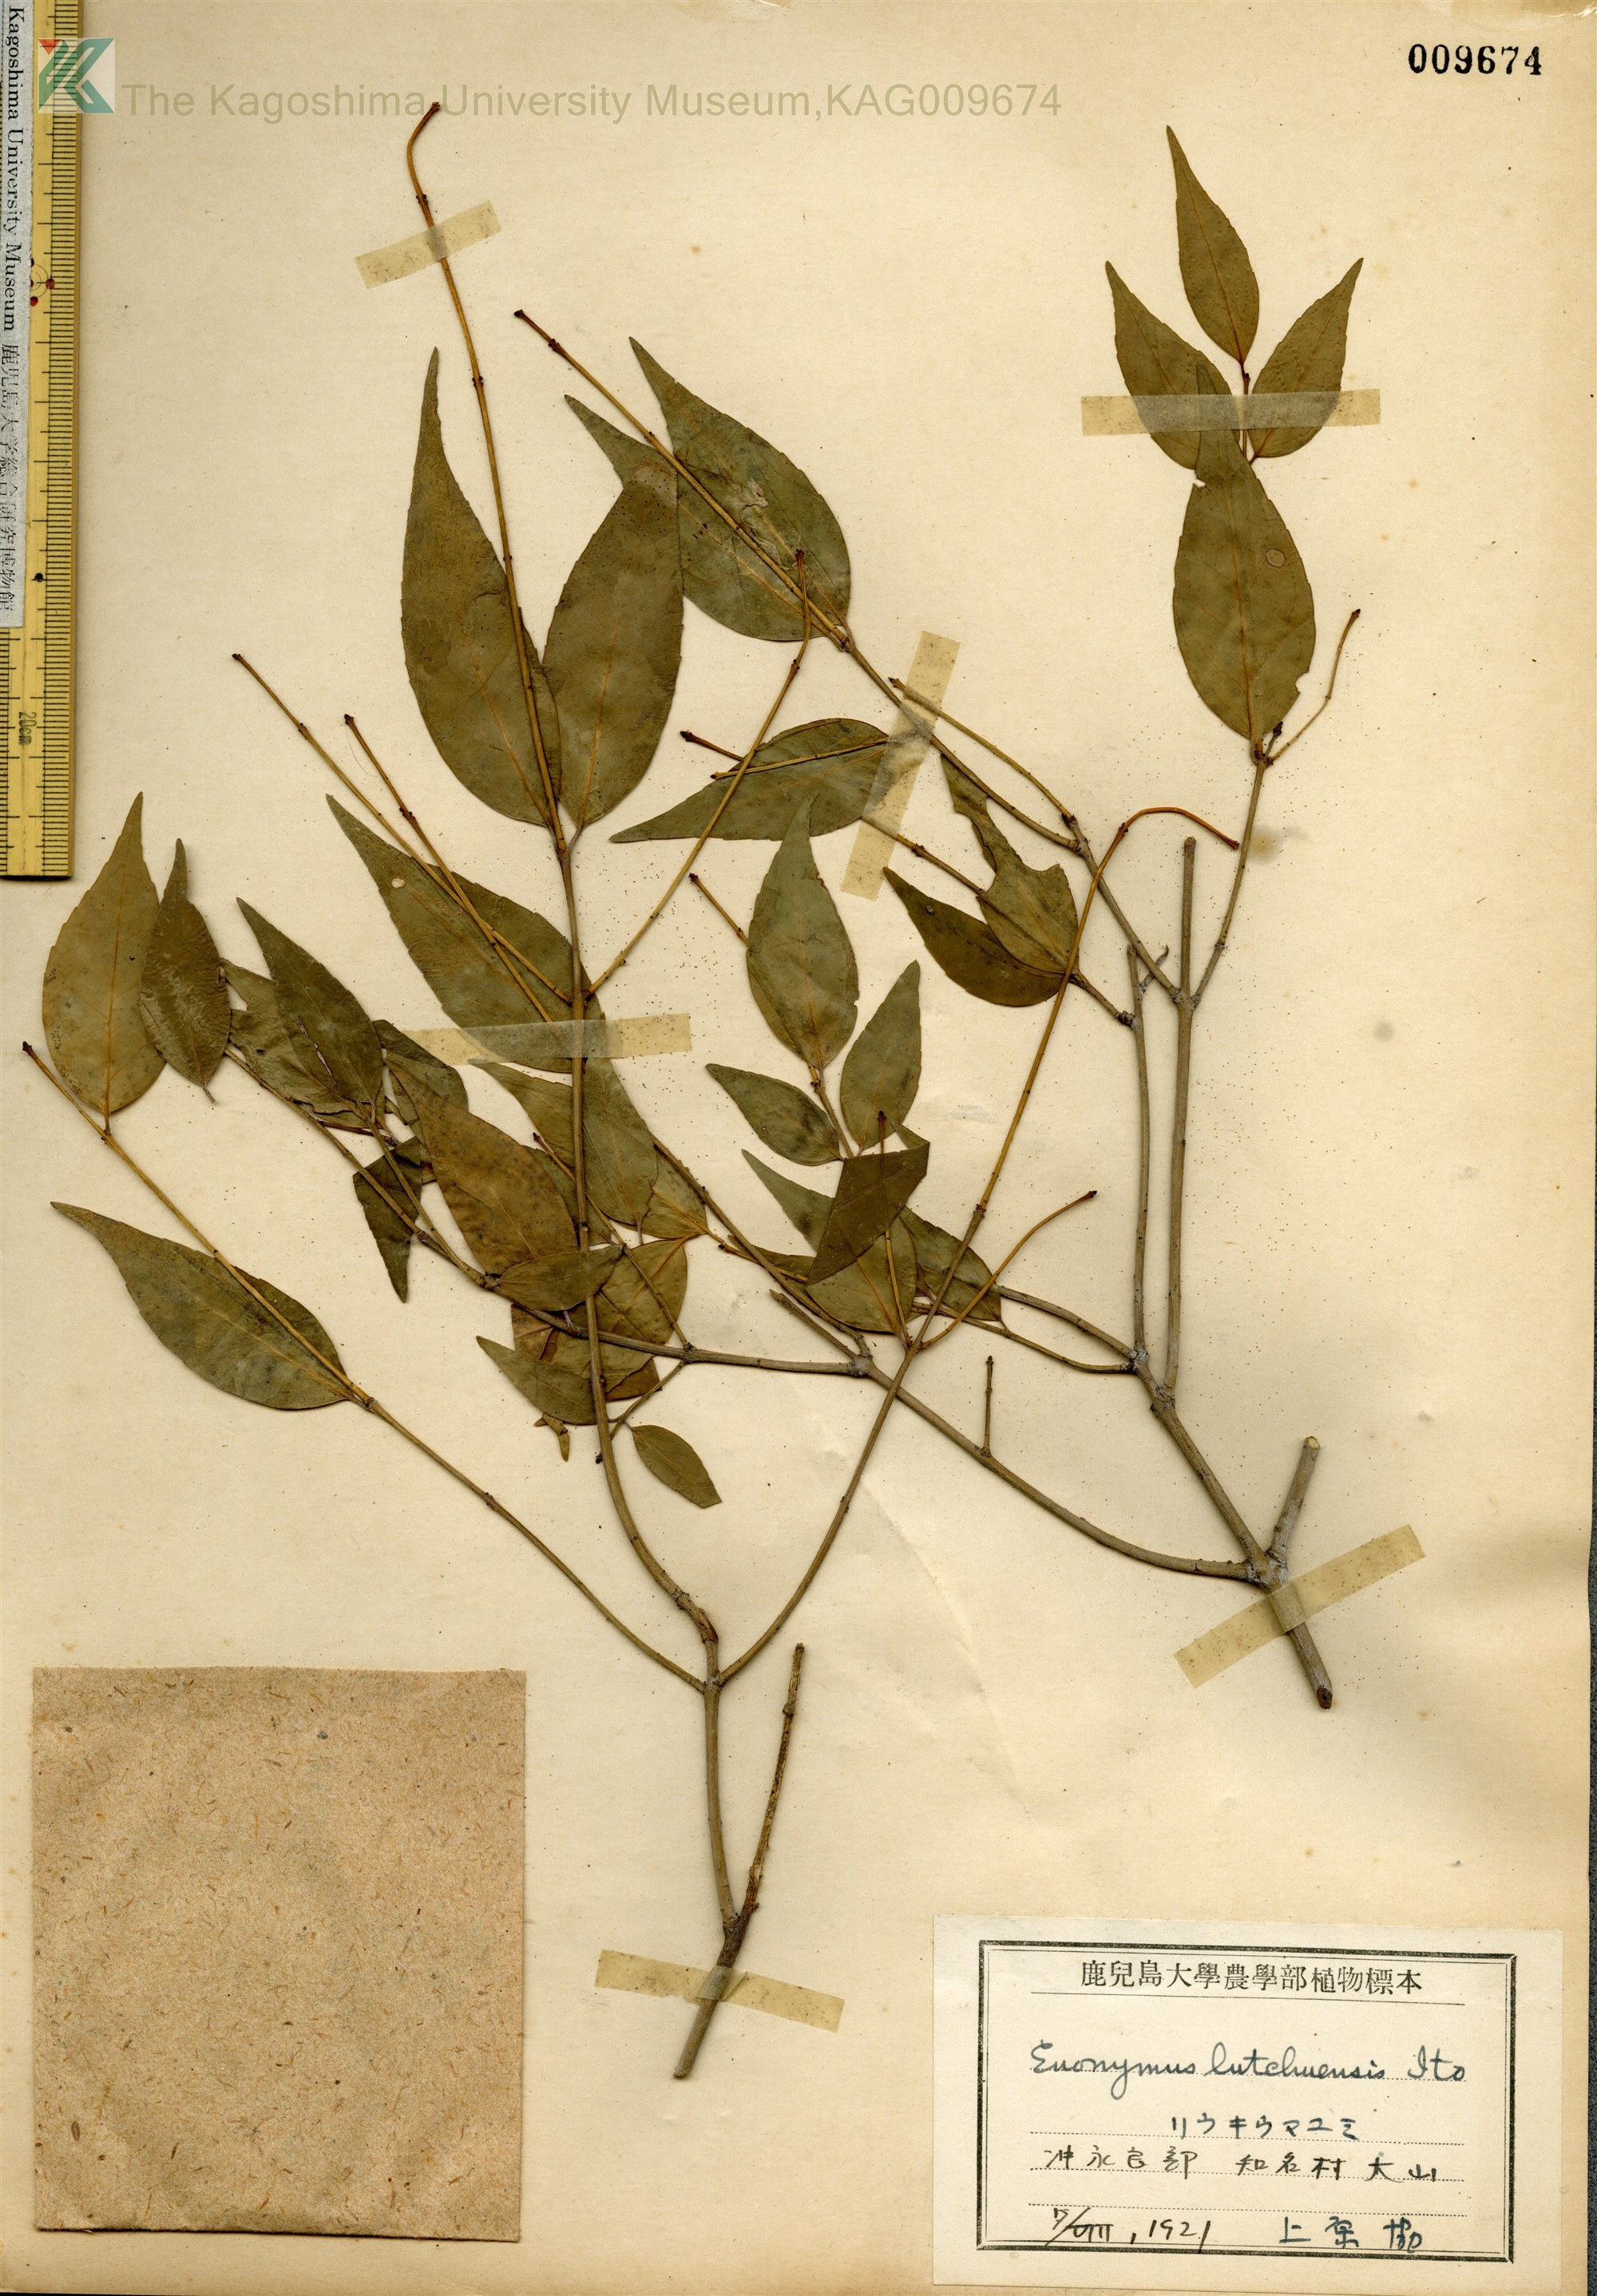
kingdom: Plantae
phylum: Tracheophyta
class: Magnoliopsida
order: Celastrales
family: Celastraceae
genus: Euonymus
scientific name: Euonymus lutchuensis
